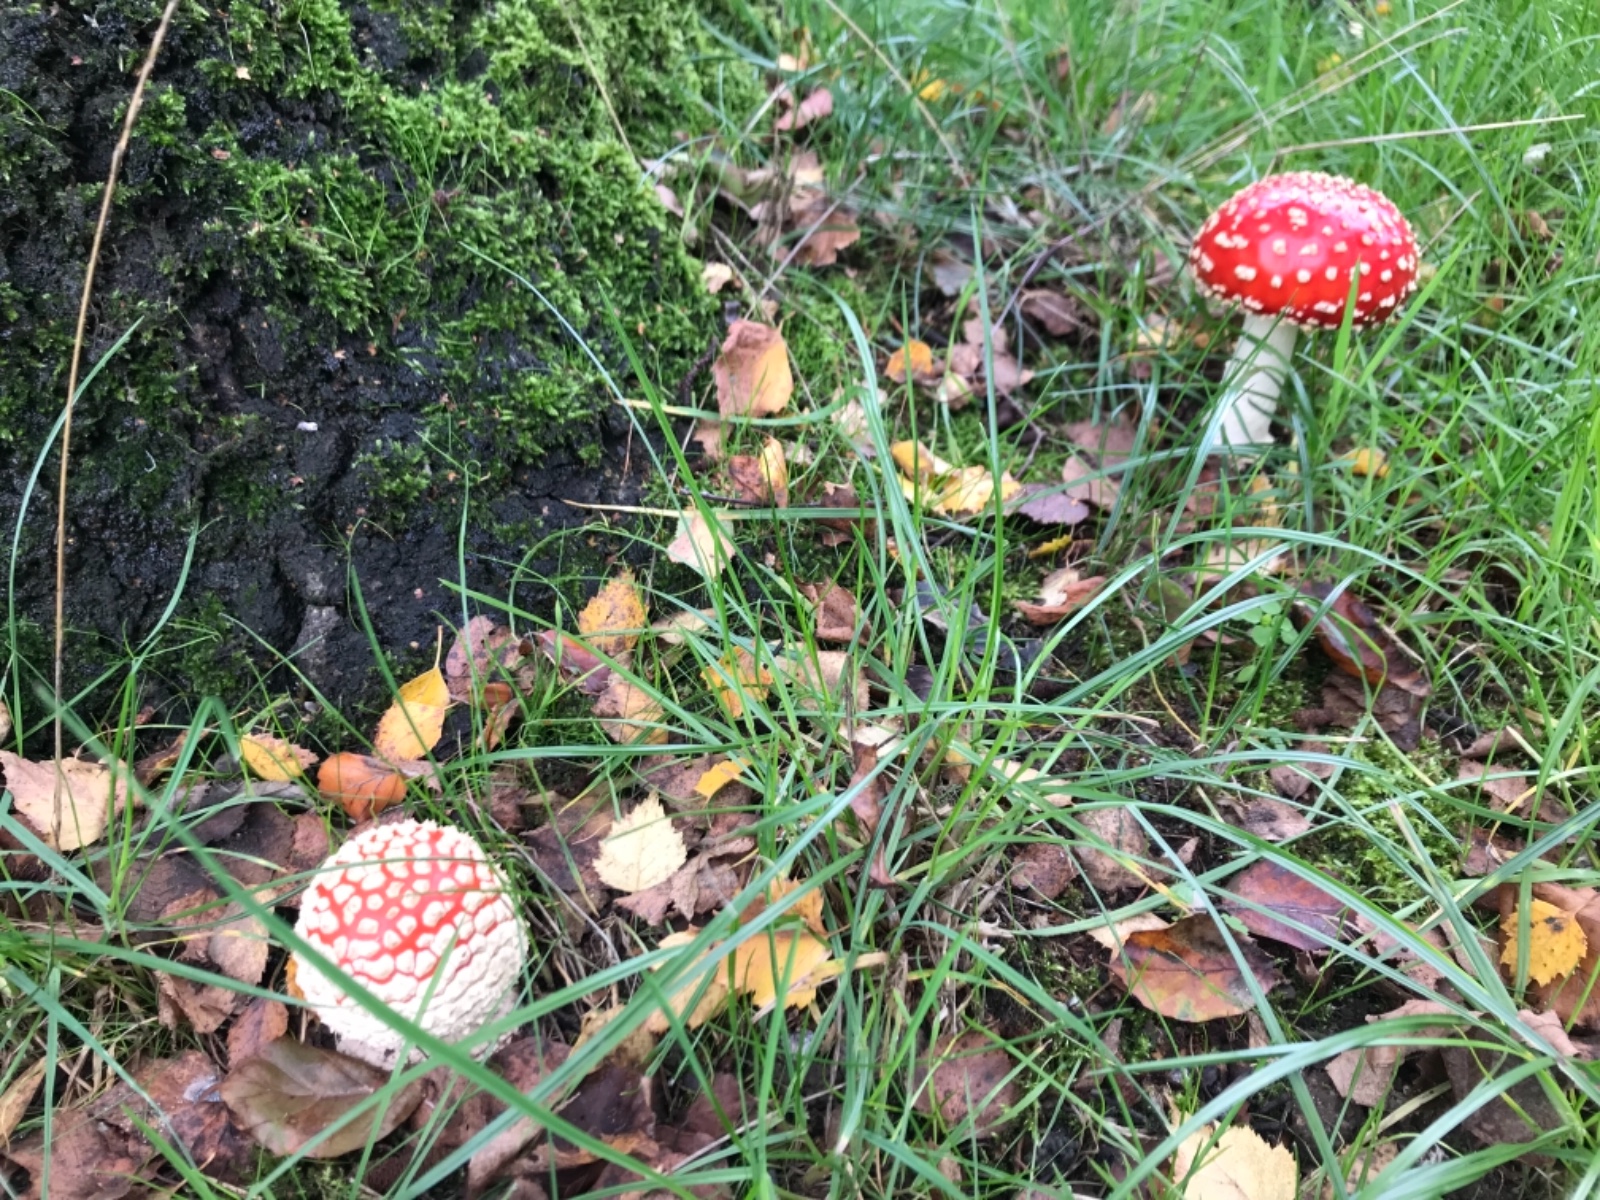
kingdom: Fungi
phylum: Basidiomycota
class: Agaricomycetes
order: Agaricales
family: Amanitaceae
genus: Amanita
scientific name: Amanita muscaria
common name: rød fluesvamp
